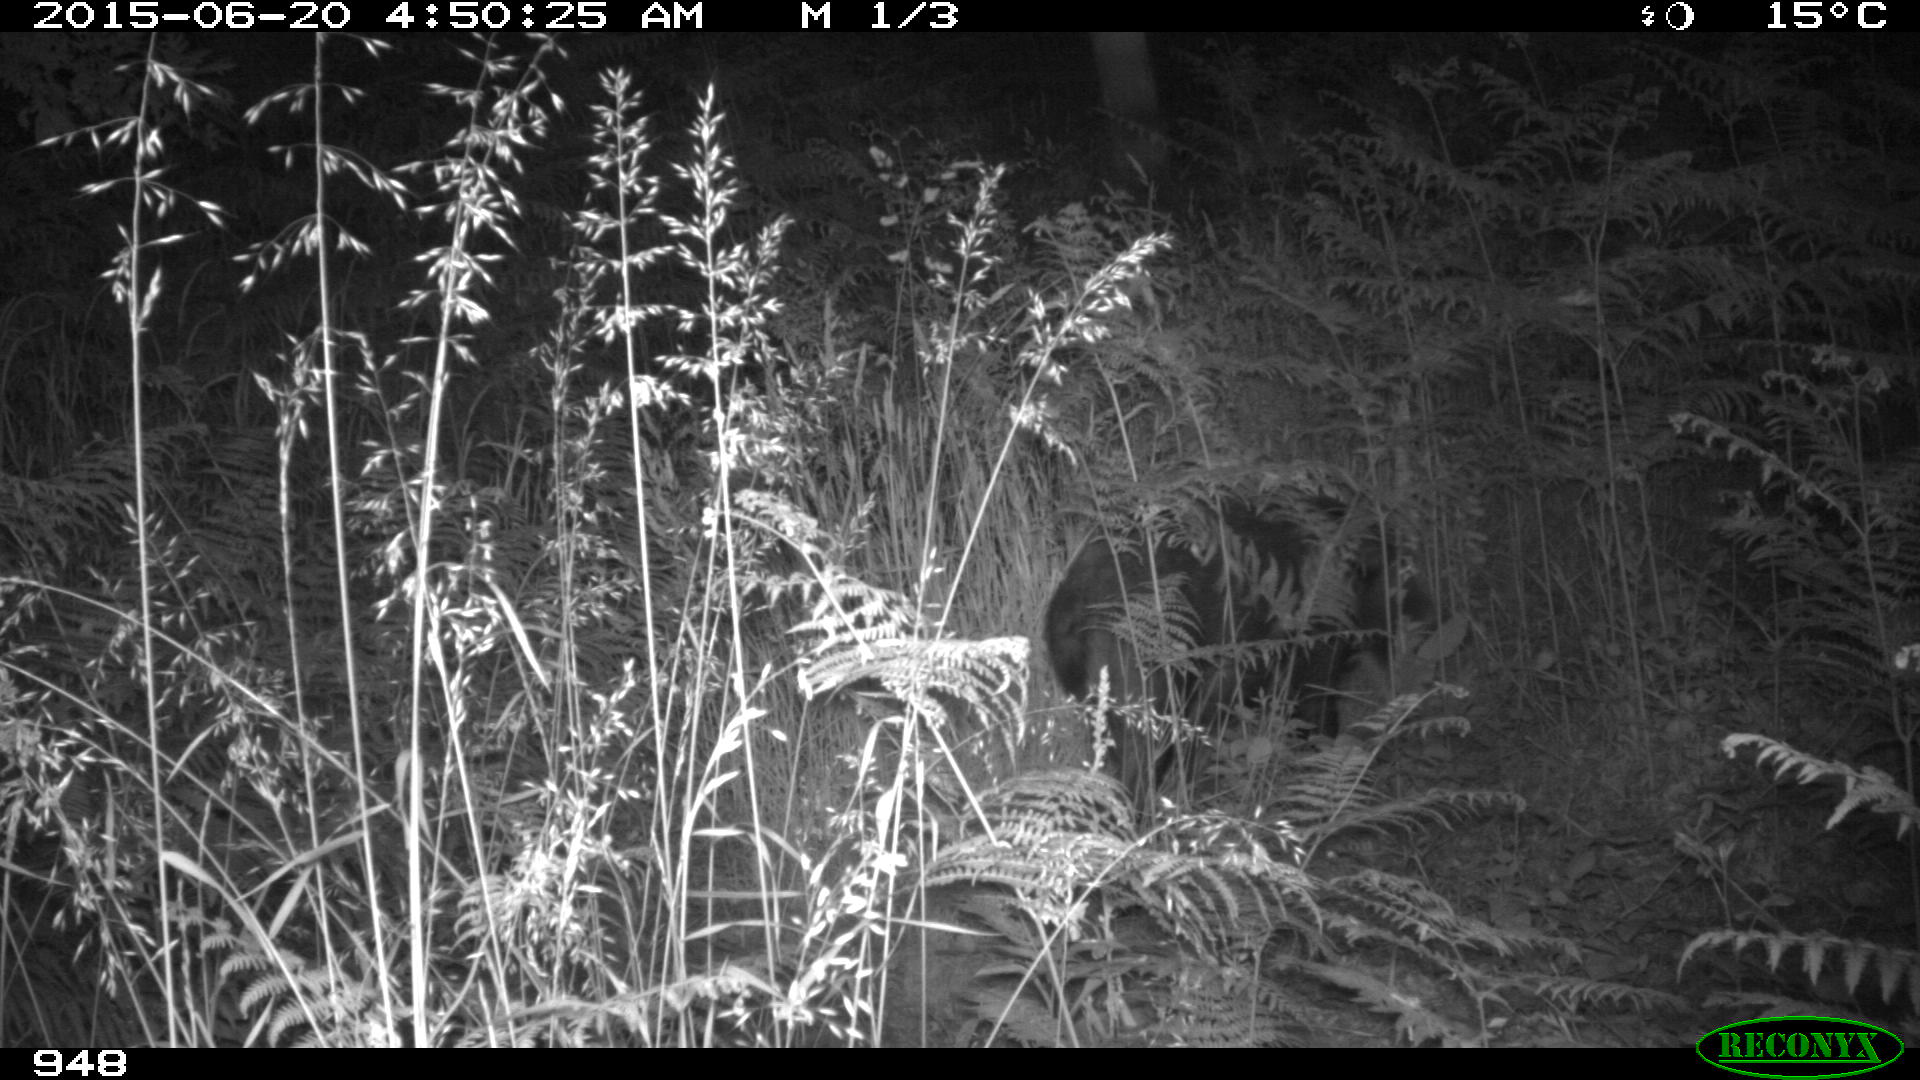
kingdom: Animalia
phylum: Chordata
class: Mammalia
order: Artiodactyla
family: Suidae
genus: Sus
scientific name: Sus scrofa
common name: Wild boar
